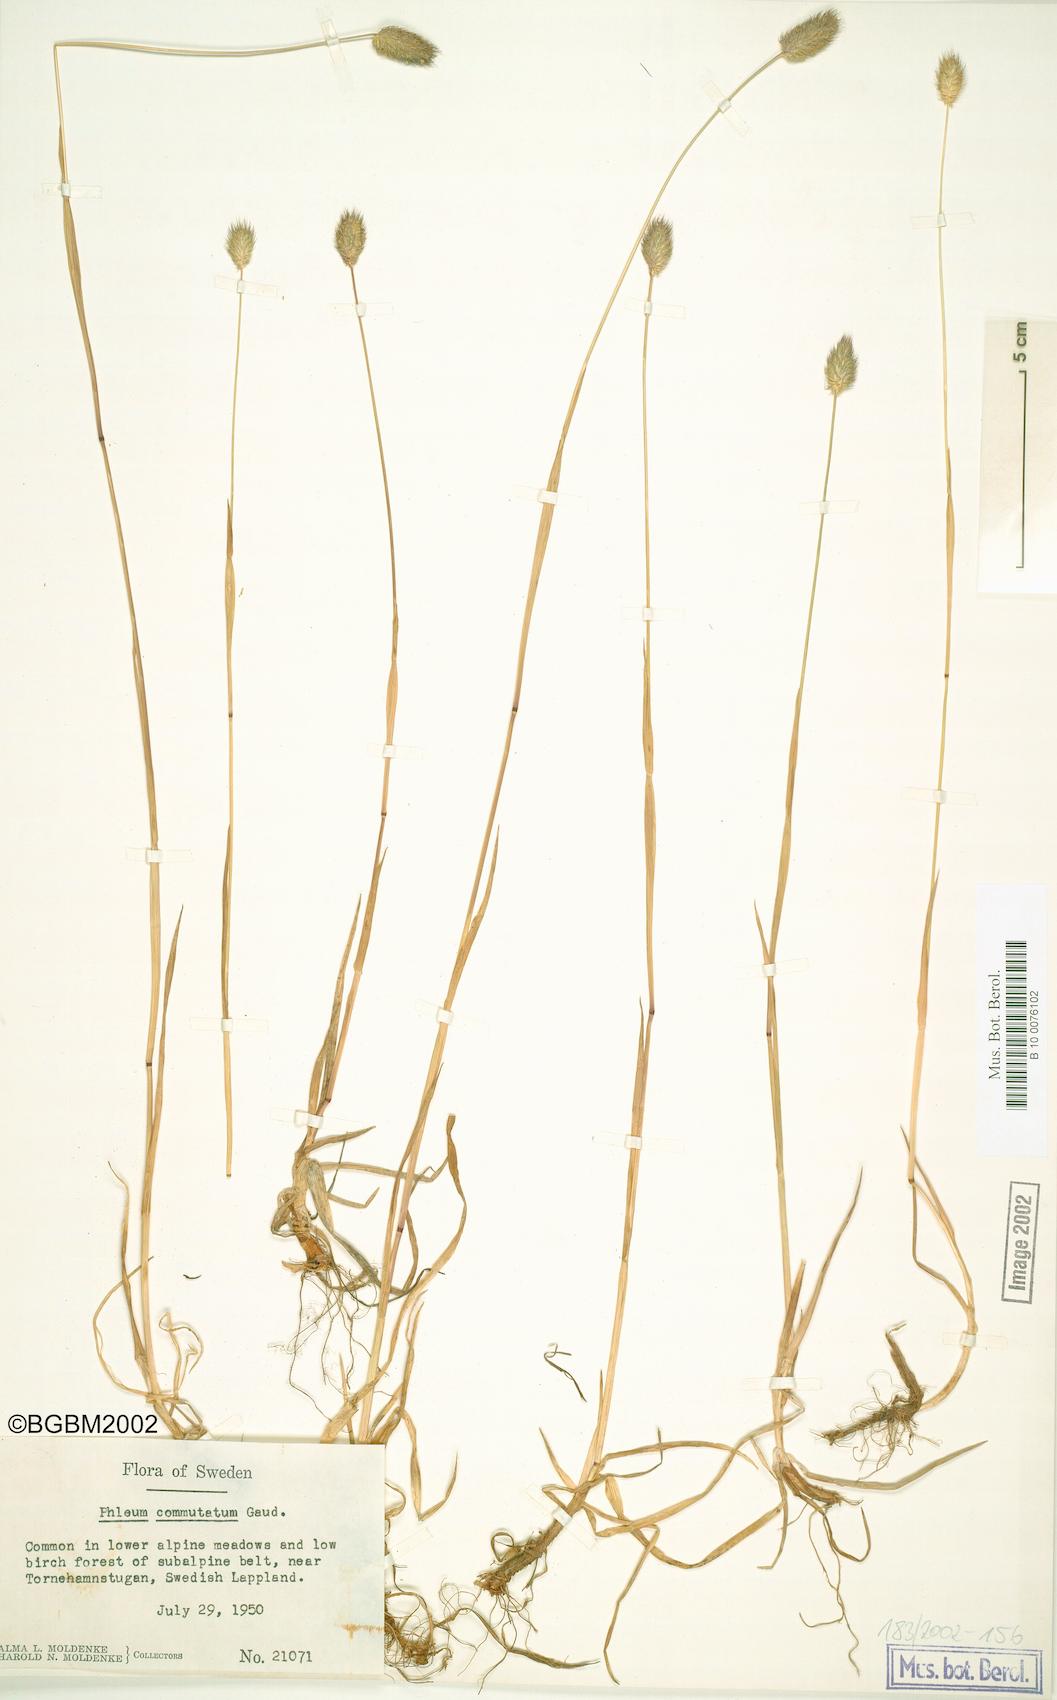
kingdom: Plantae
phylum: Tracheophyta
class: Liliopsida
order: Poales
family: Poaceae
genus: Phleum
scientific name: Phleum alpinum
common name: Alpine cat's-tail
